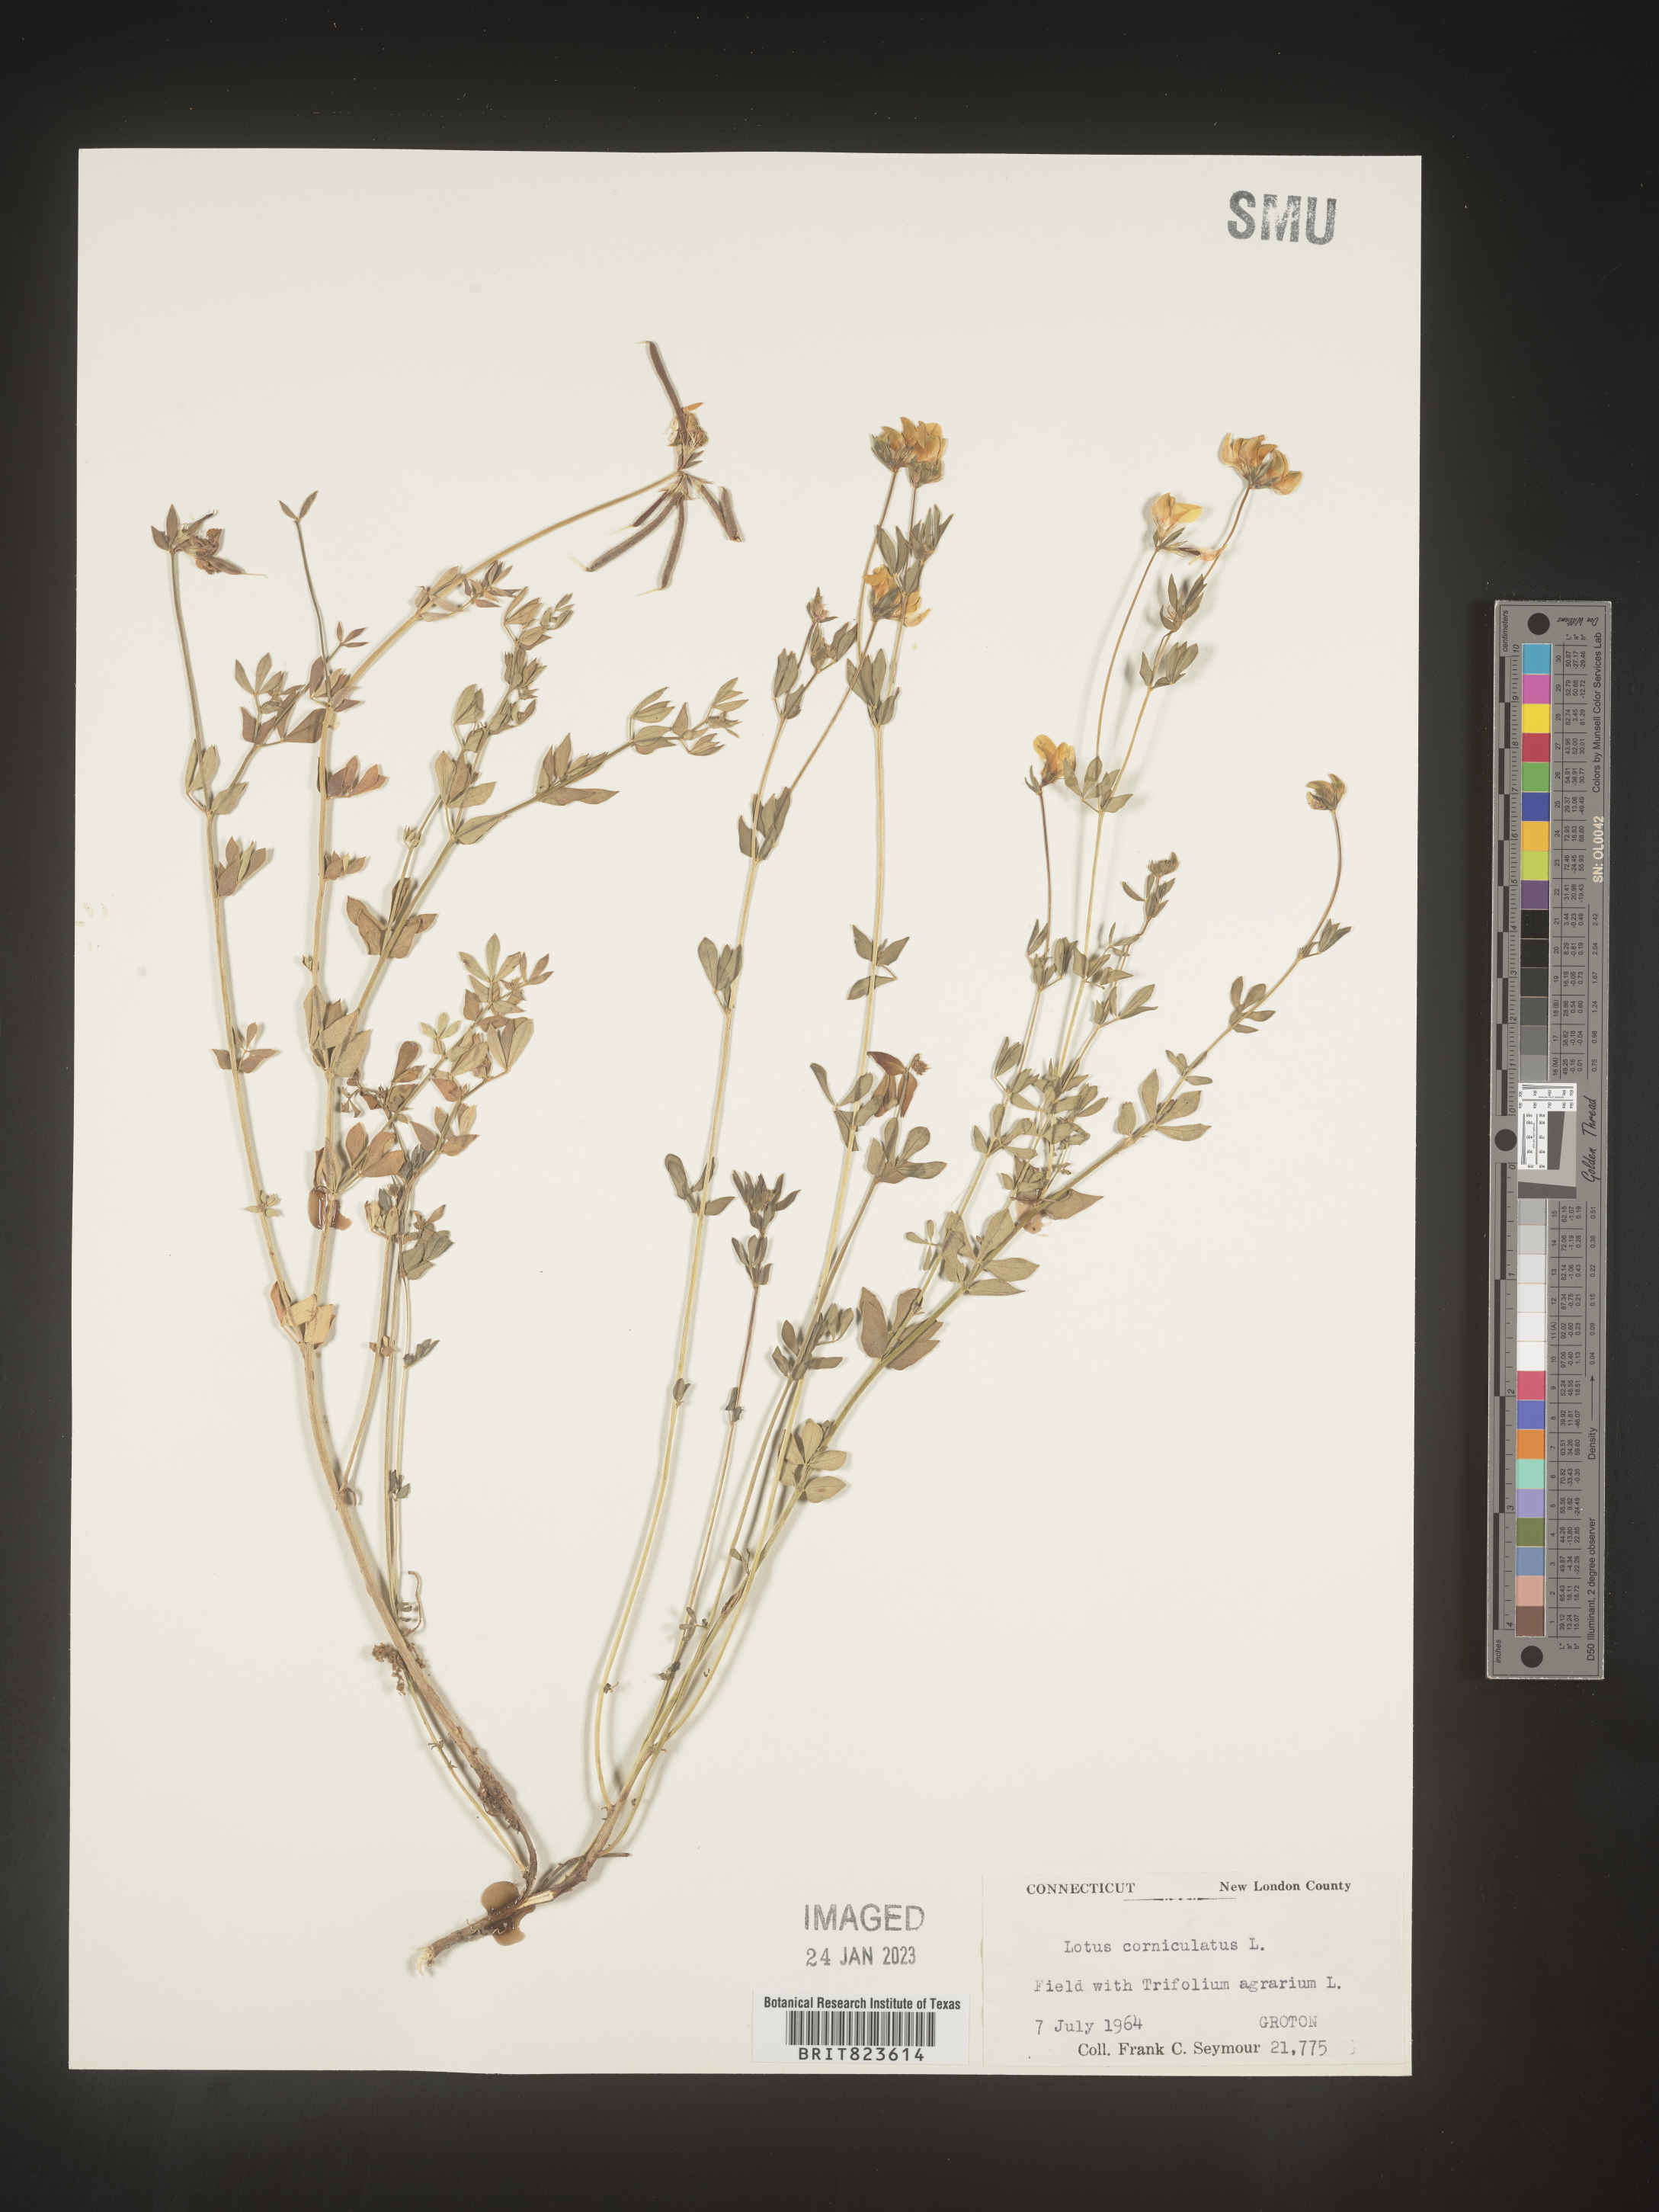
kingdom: Plantae
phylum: Tracheophyta
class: Magnoliopsida
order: Fabales
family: Fabaceae
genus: Lotus
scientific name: Lotus corniculatus
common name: Common bird's-foot-trefoil
